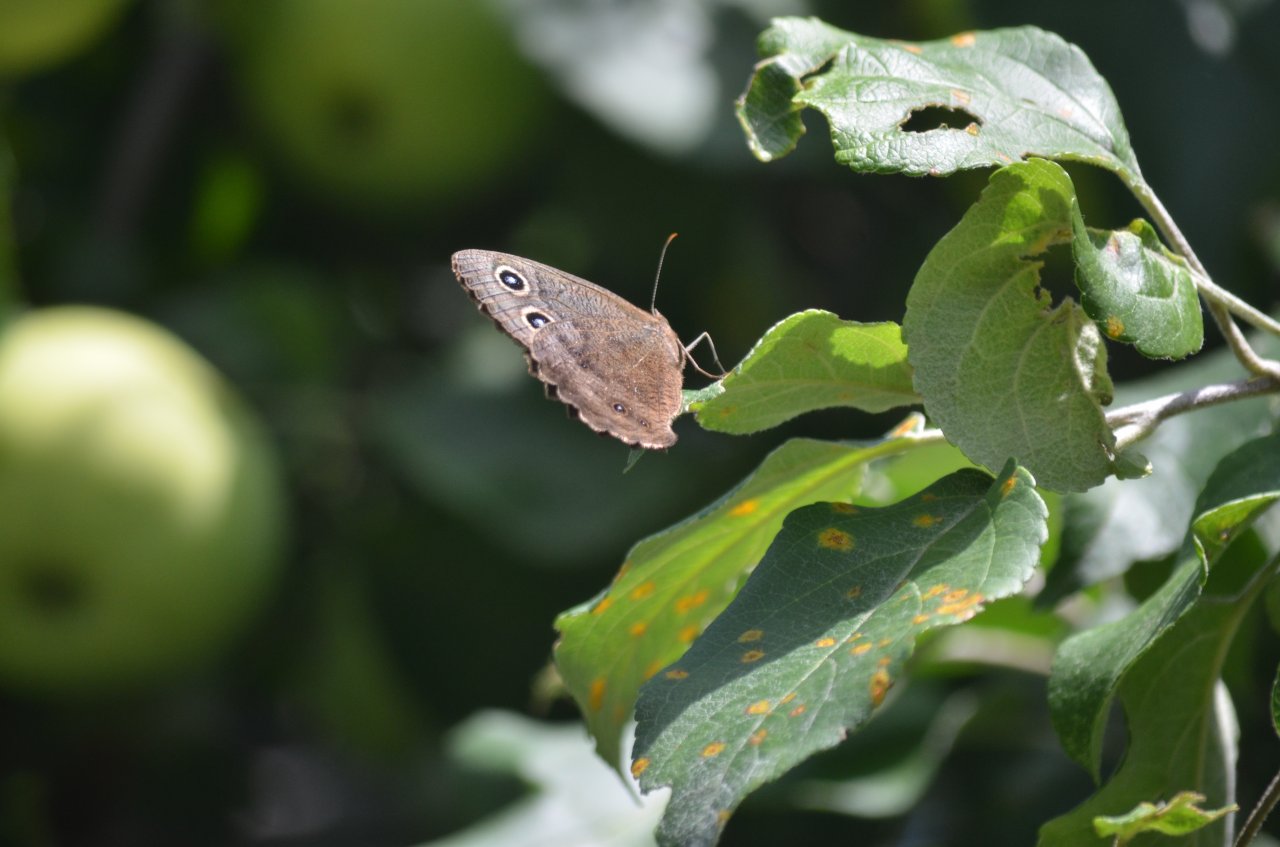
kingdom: Animalia
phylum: Arthropoda
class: Insecta
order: Lepidoptera
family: Nymphalidae
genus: Cercyonis
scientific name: Cercyonis pegala
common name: Common Wood-Nymph
